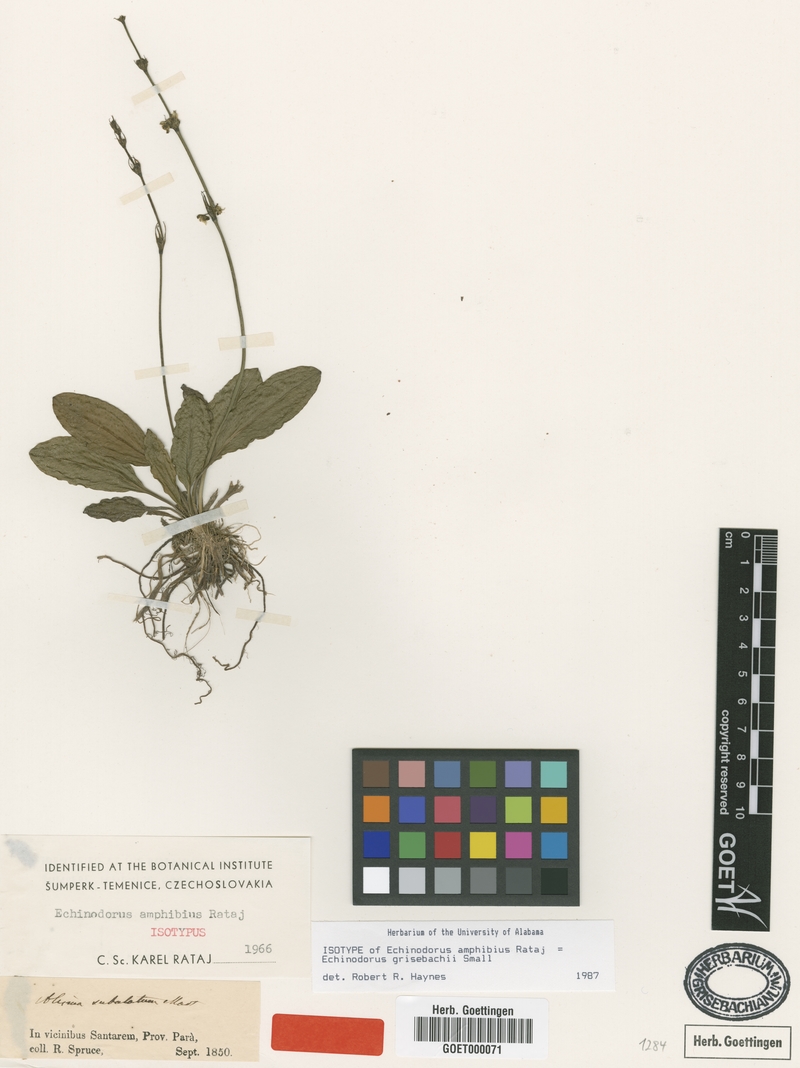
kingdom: Plantae
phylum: Tracheophyta
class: Liliopsida
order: Alismatales
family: Alismataceae
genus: Aquarius
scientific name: Aquarius grisebachii
